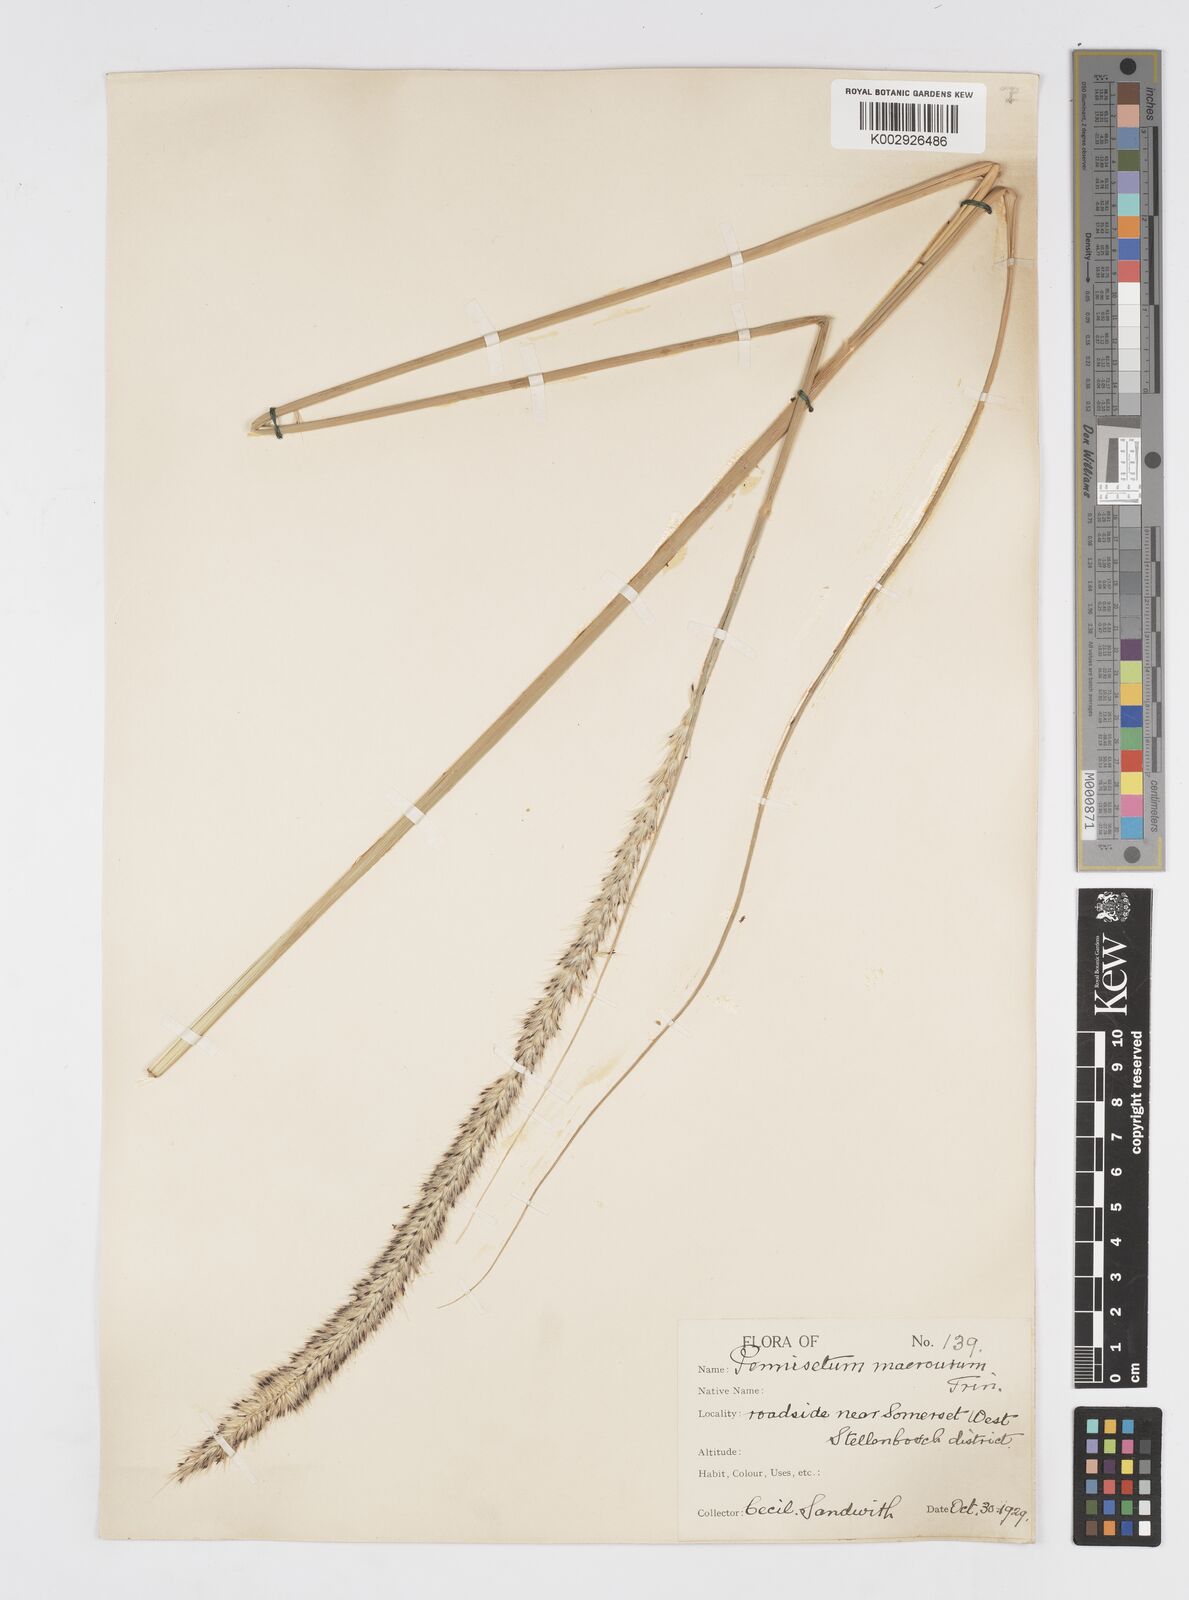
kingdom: Plantae
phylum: Tracheophyta
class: Liliopsida
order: Poales
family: Poaceae
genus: Cenchrus
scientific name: Cenchrus caudatus
